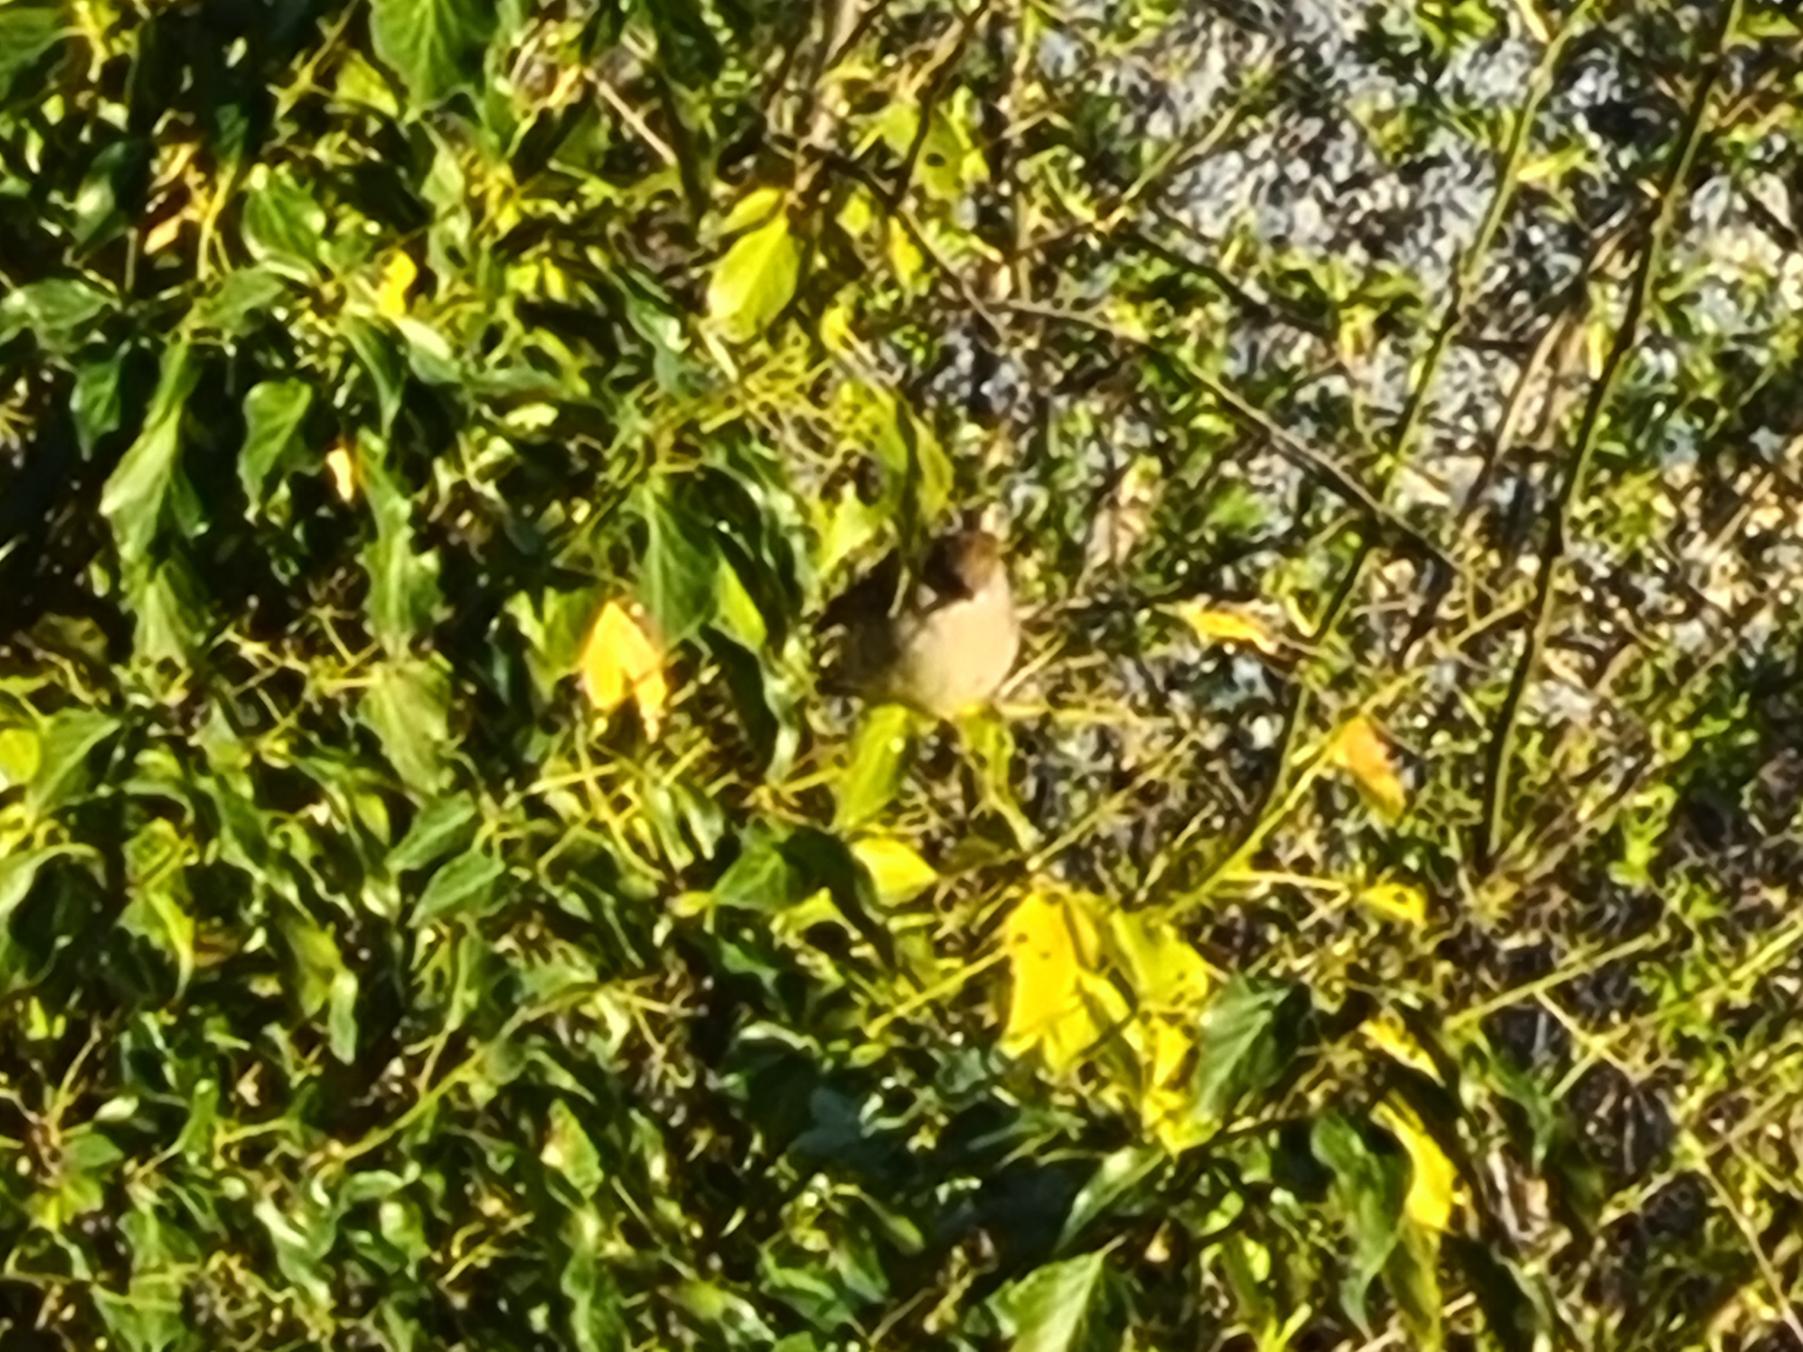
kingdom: Animalia
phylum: Chordata
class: Aves
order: Passeriformes
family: Sylviidae
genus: Sylvia
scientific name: Sylvia atricapilla
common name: Munk
